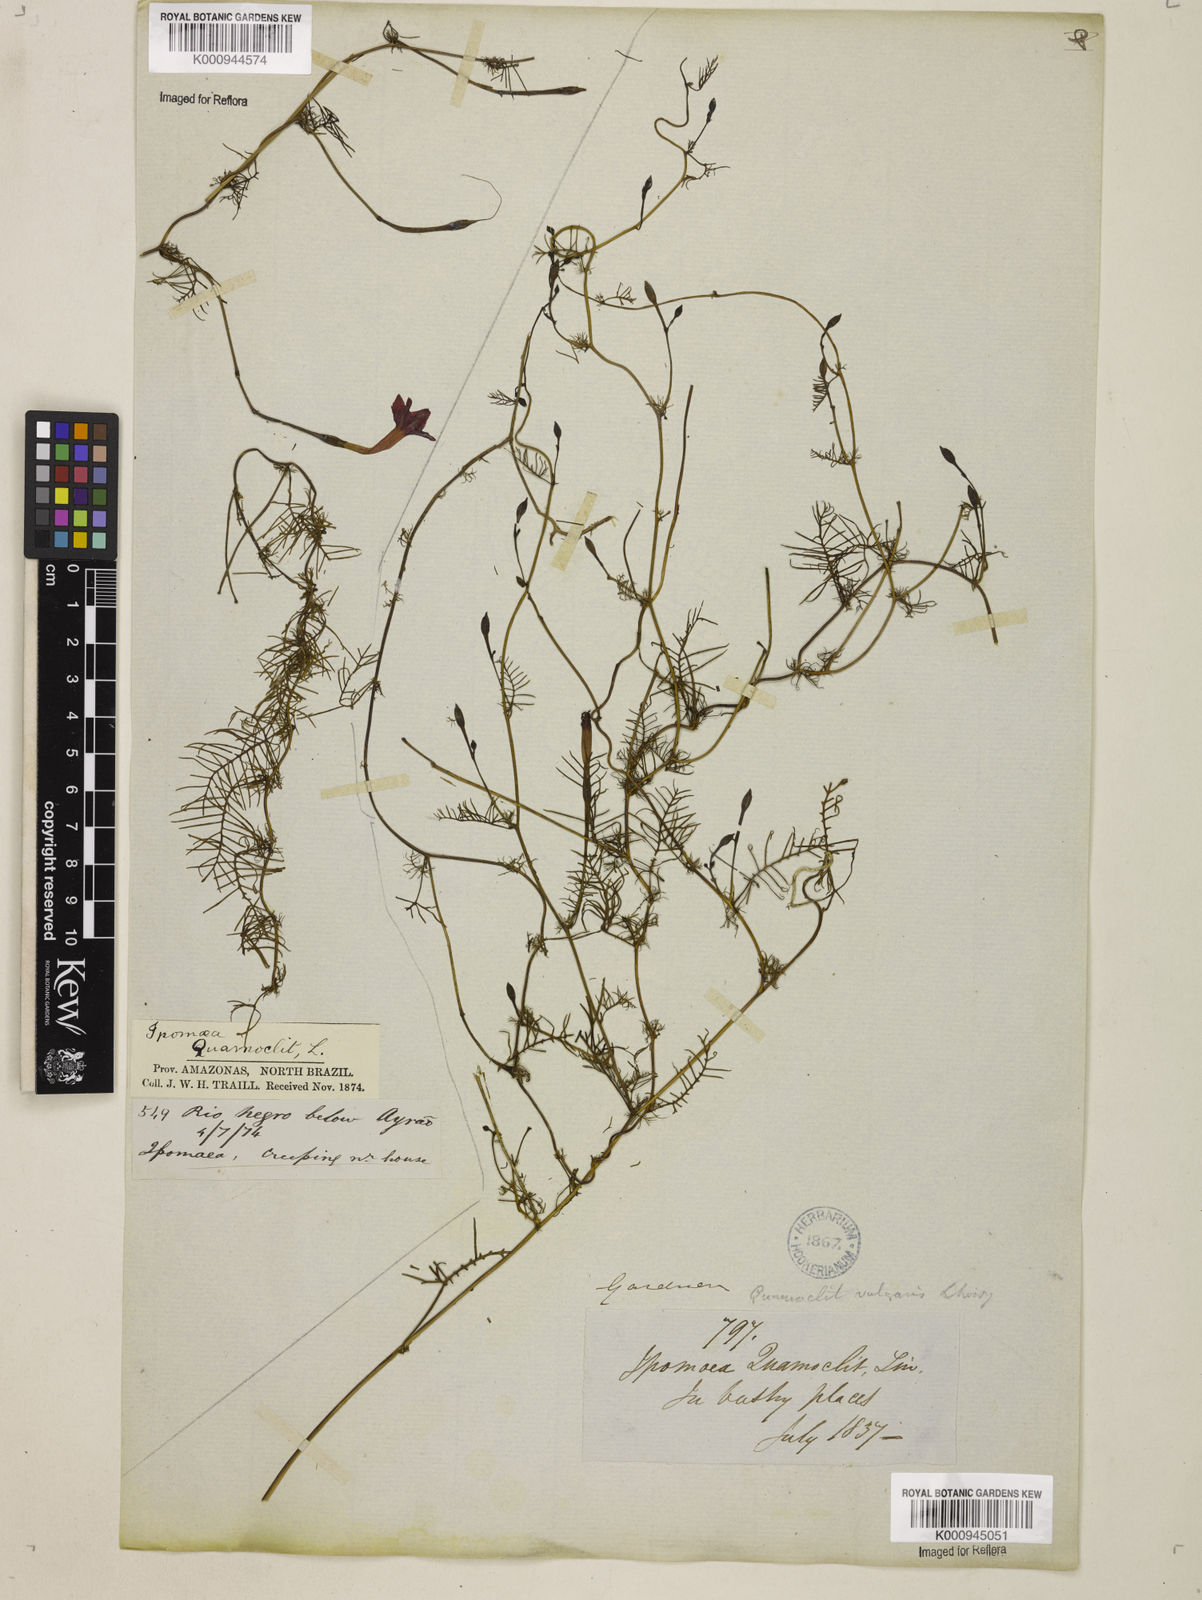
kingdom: Plantae
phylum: Tracheophyta
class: Magnoliopsida
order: Solanales
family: Convolvulaceae
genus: Ipomoea
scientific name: Ipomoea quamoclit
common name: Cypress vine
